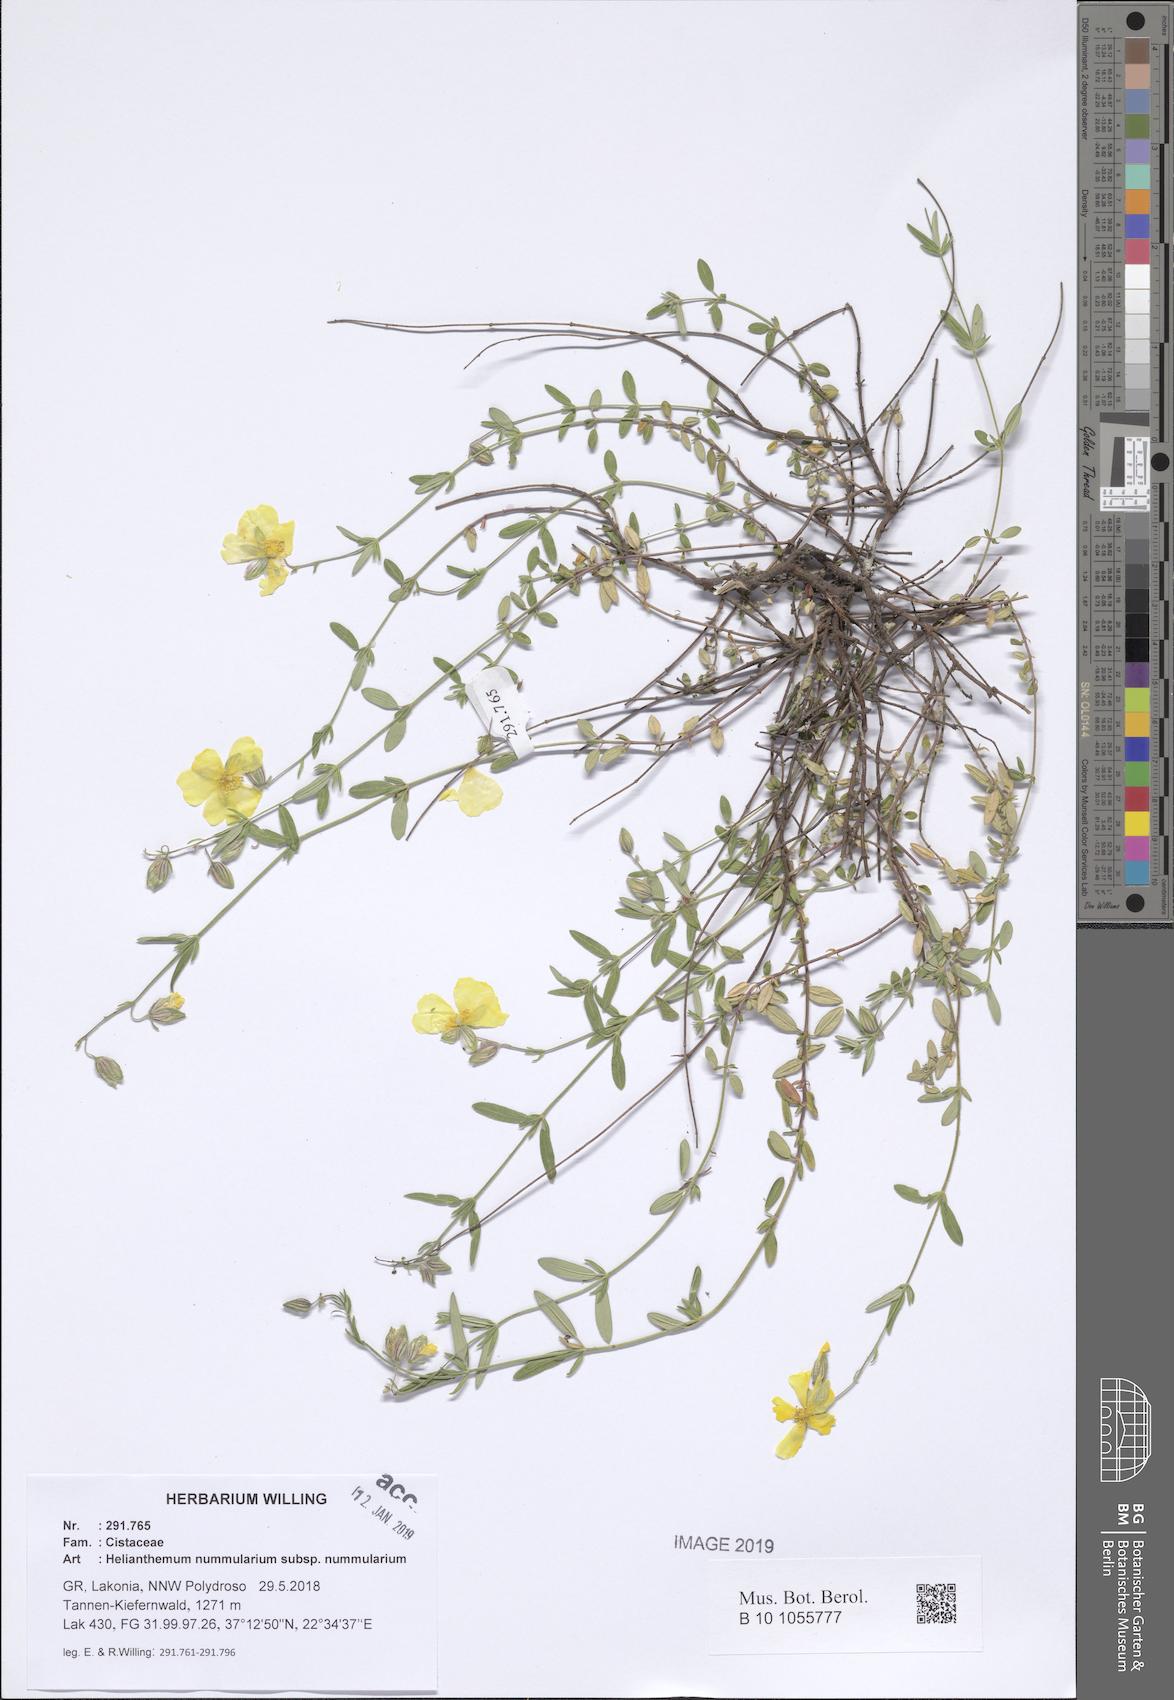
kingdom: Plantae
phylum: Tracheophyta
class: Magnoliopsida
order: Malvales
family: Cistaceae
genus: Helianthemum
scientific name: Helianthemum nummularium
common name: Common rock-rose
